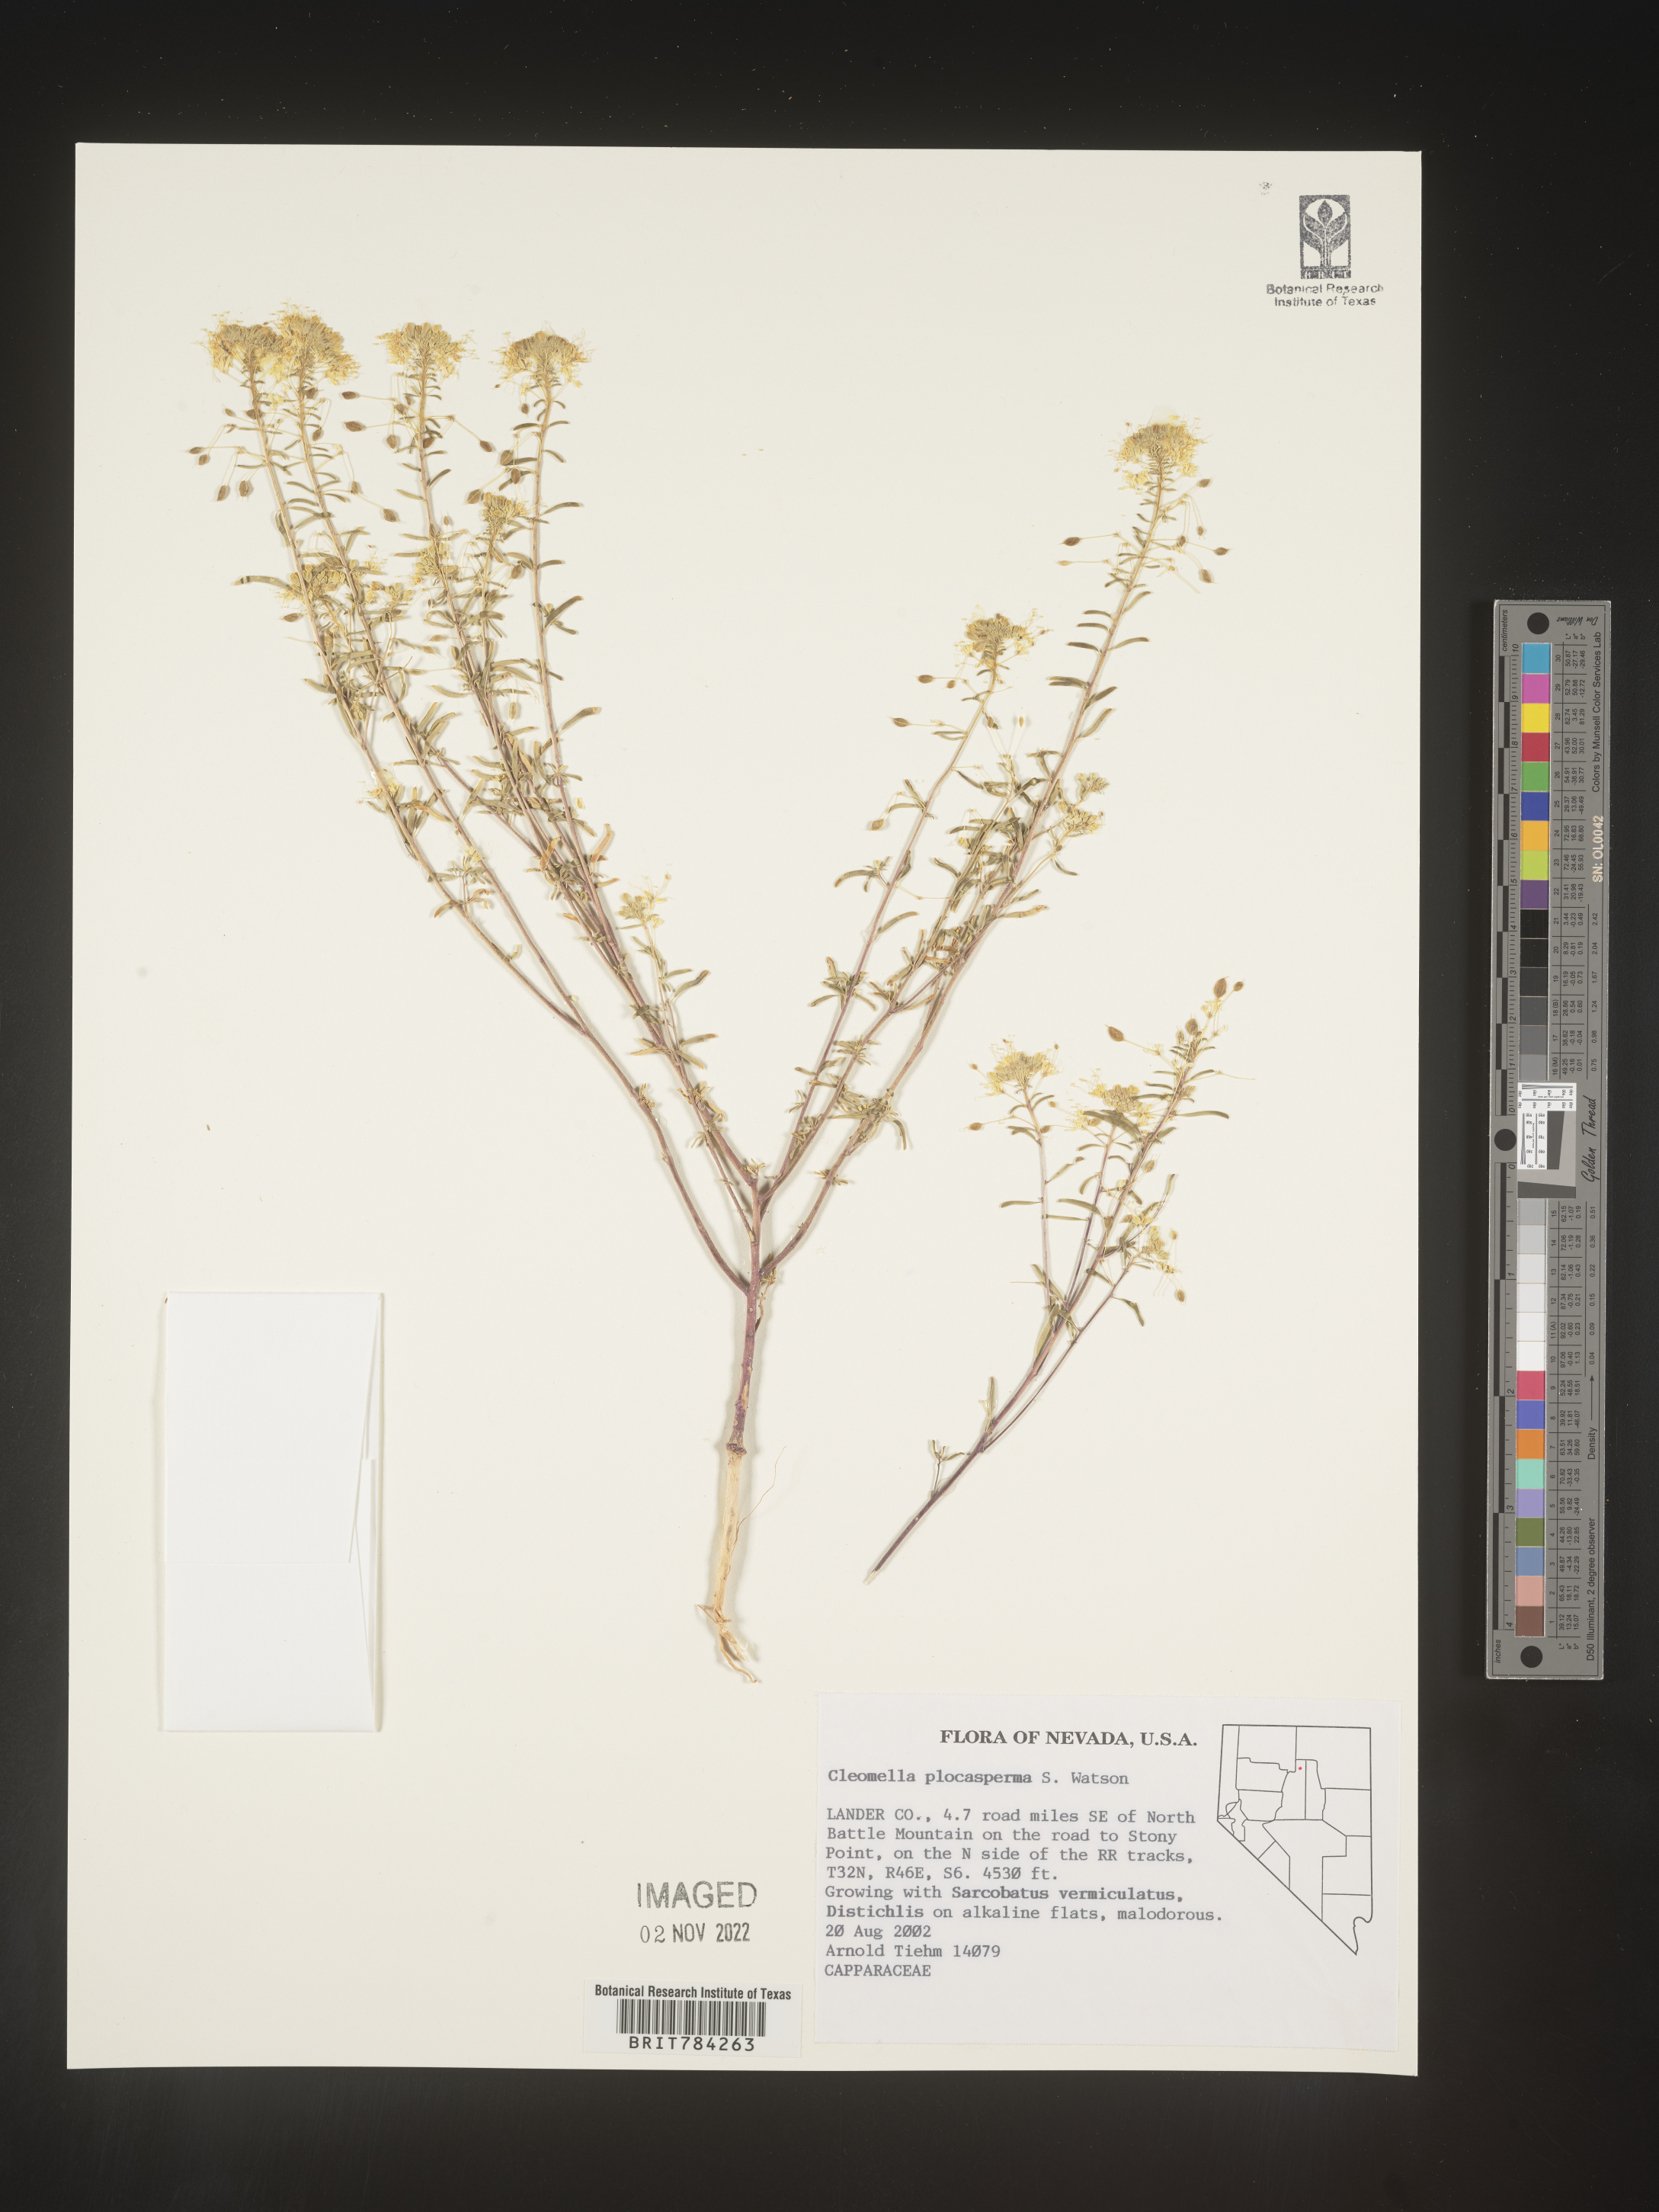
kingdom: Plantae
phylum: Tracheophyta
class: Magnoliopsida
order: Brassicales
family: Cleomaceae
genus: Cleomella
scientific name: Cleomella
